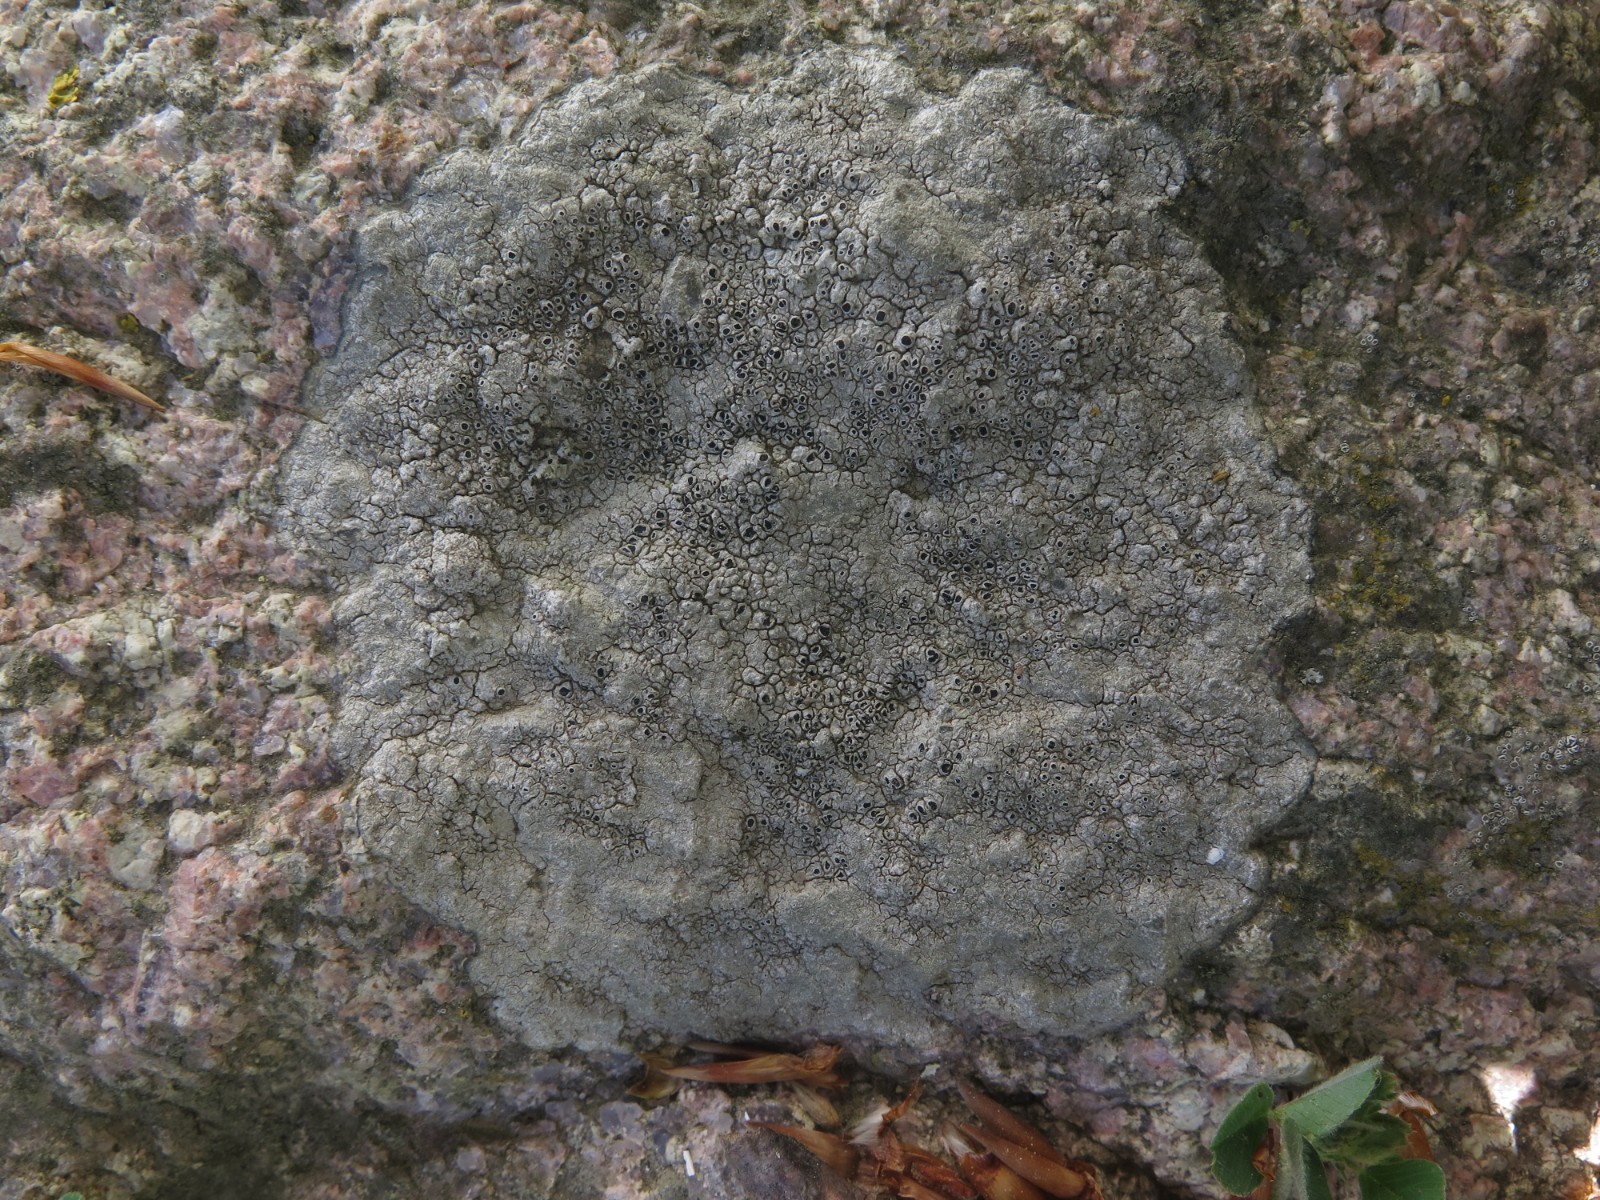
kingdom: Fungi
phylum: Ascomycota
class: Lecanoromycetes
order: Pertusariales
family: Megasporaceae
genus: Circinaria
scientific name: Circinaria caesiocinerea
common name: fuglestens-hulskivelav
